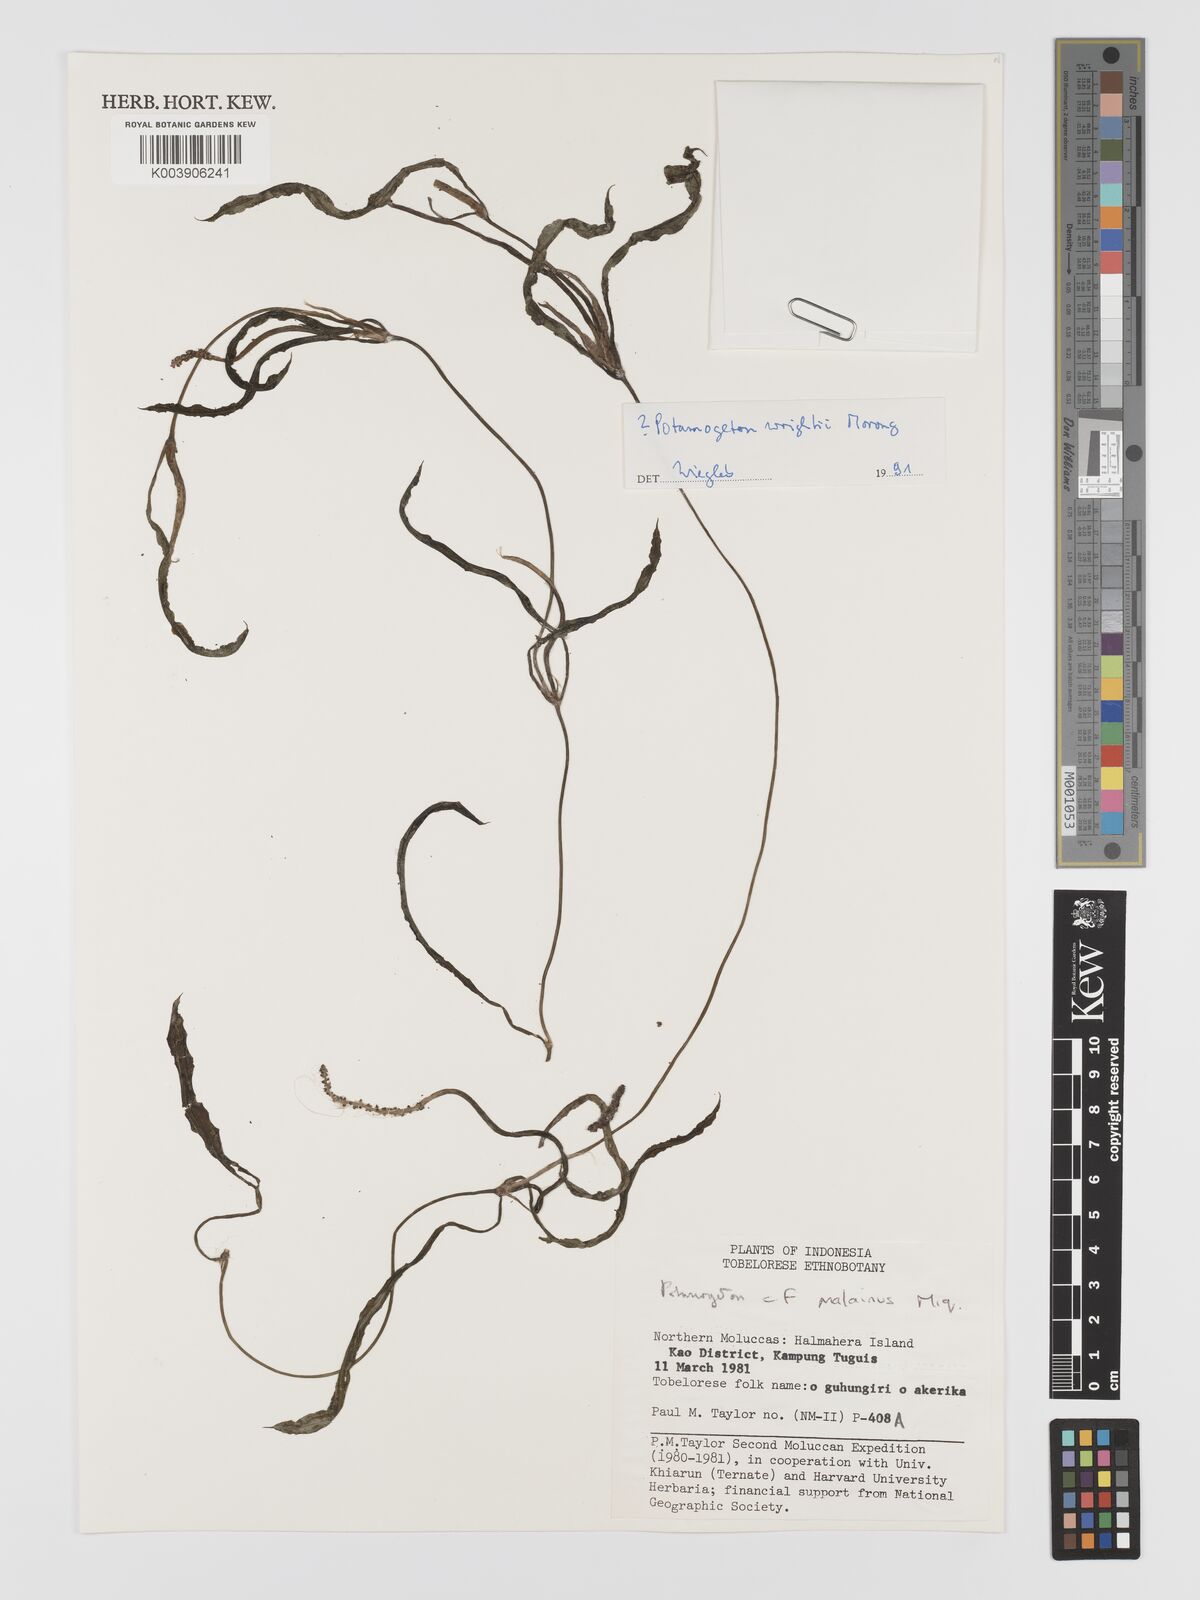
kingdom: Plantae
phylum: Tracheophyta
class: Liliopsida
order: Alismatales
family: Potamogetonaceae
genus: Potamogeton
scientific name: Potamogeton wrightii
